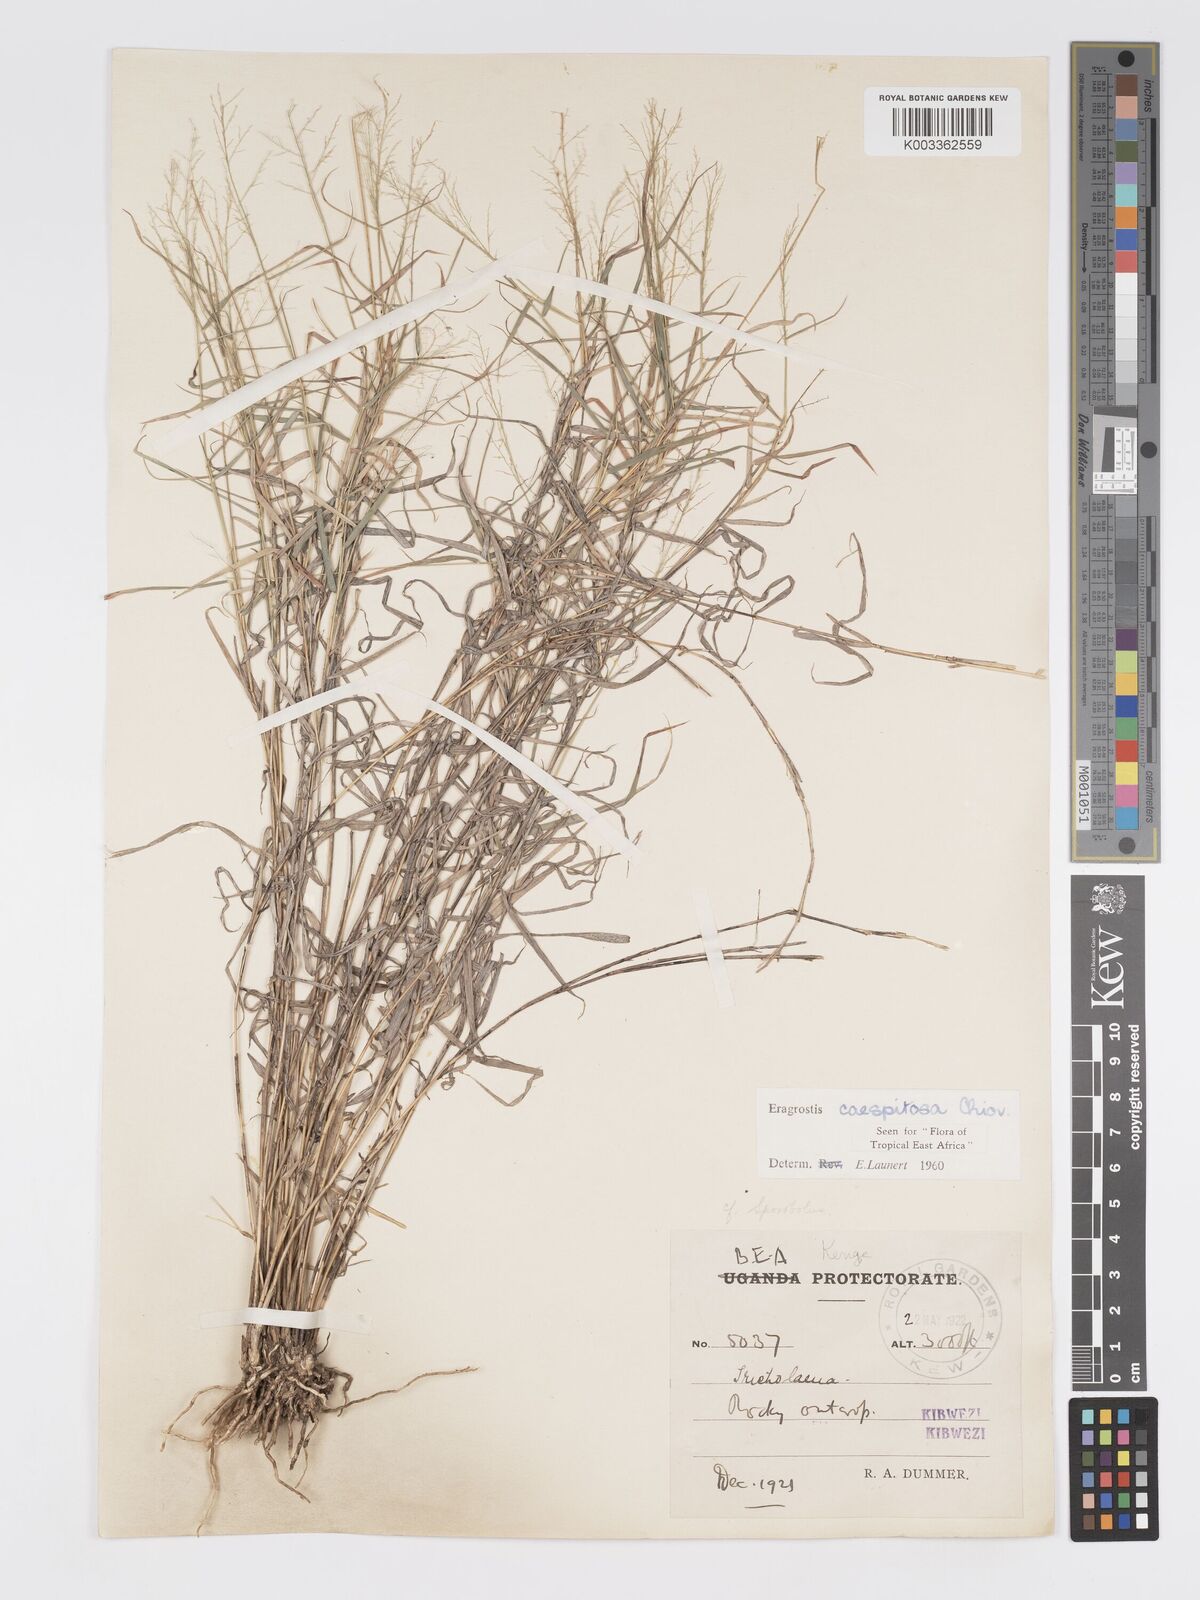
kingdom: Plantae
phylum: Tracheophyta
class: Liliopsida
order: Poales
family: Poaceae
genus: Eragrostis
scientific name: Eragrostis caespitosa
